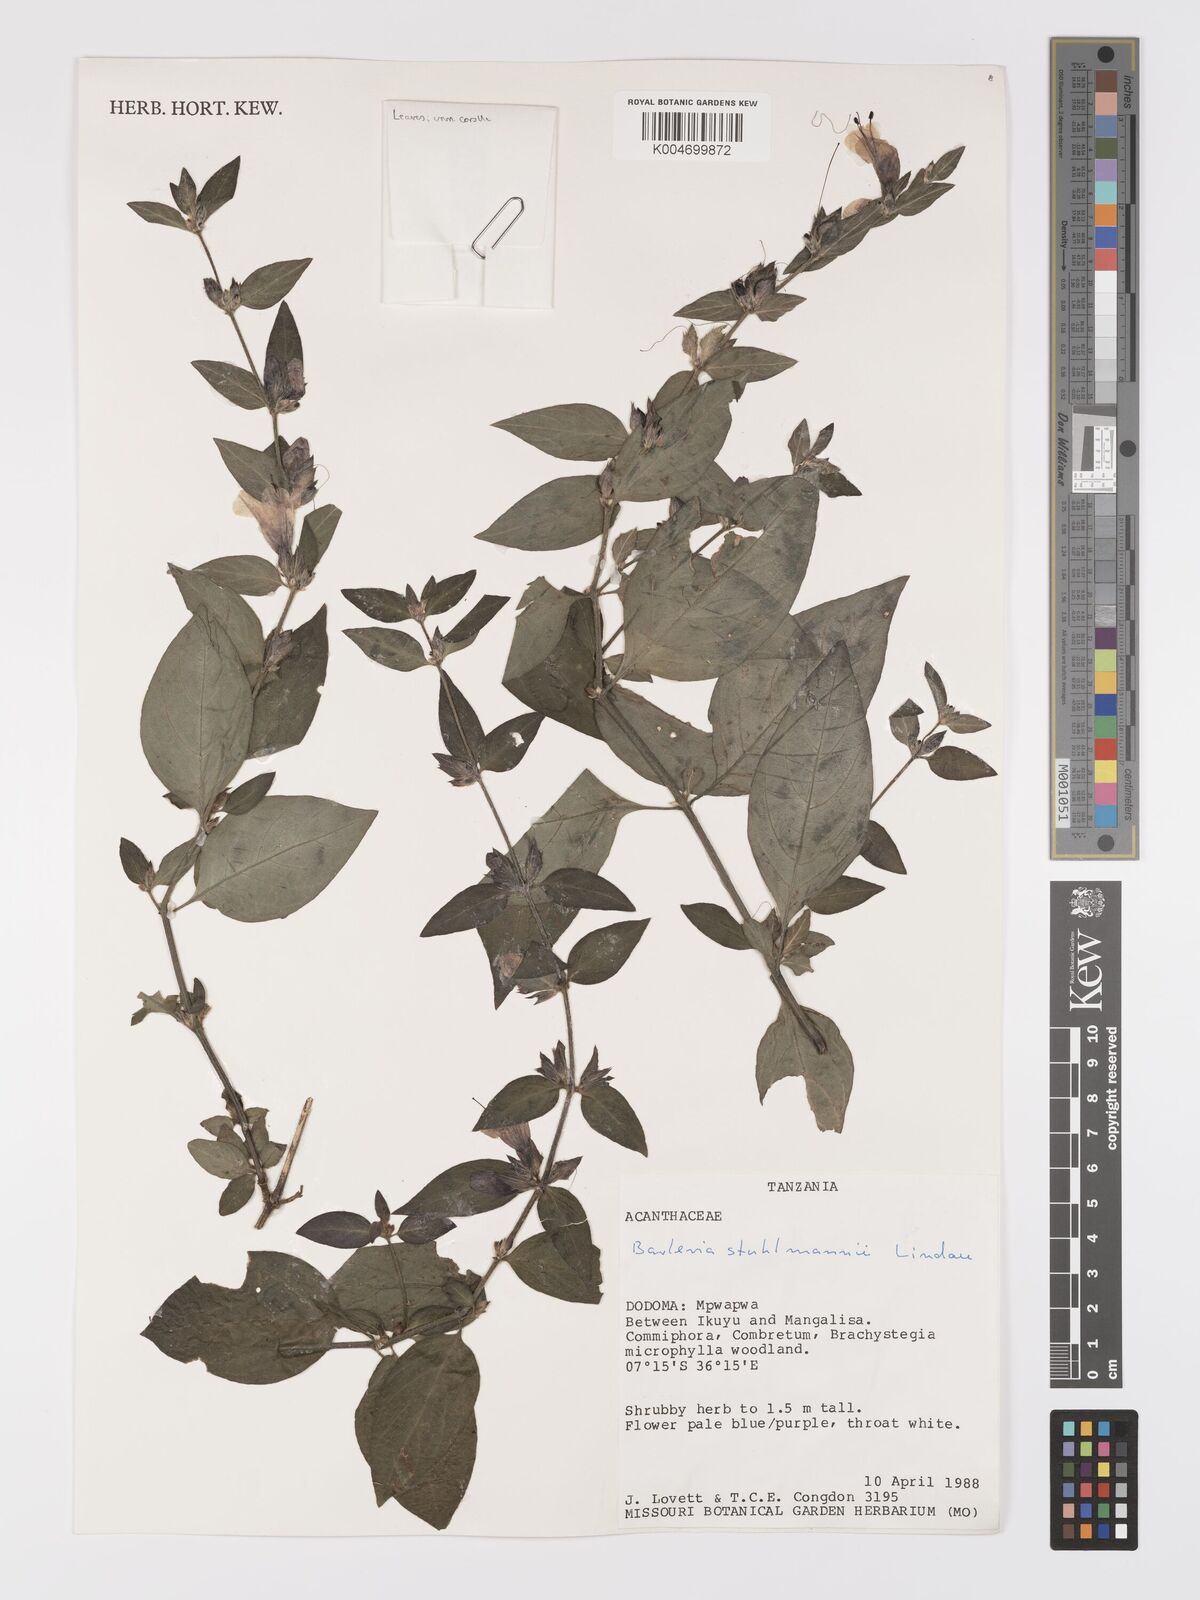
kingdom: Plantae
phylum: Tracheophyta
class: Magnoliopsida
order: Lamiales
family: Acanthaceae
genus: Barleria
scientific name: Barleria ventricosa
